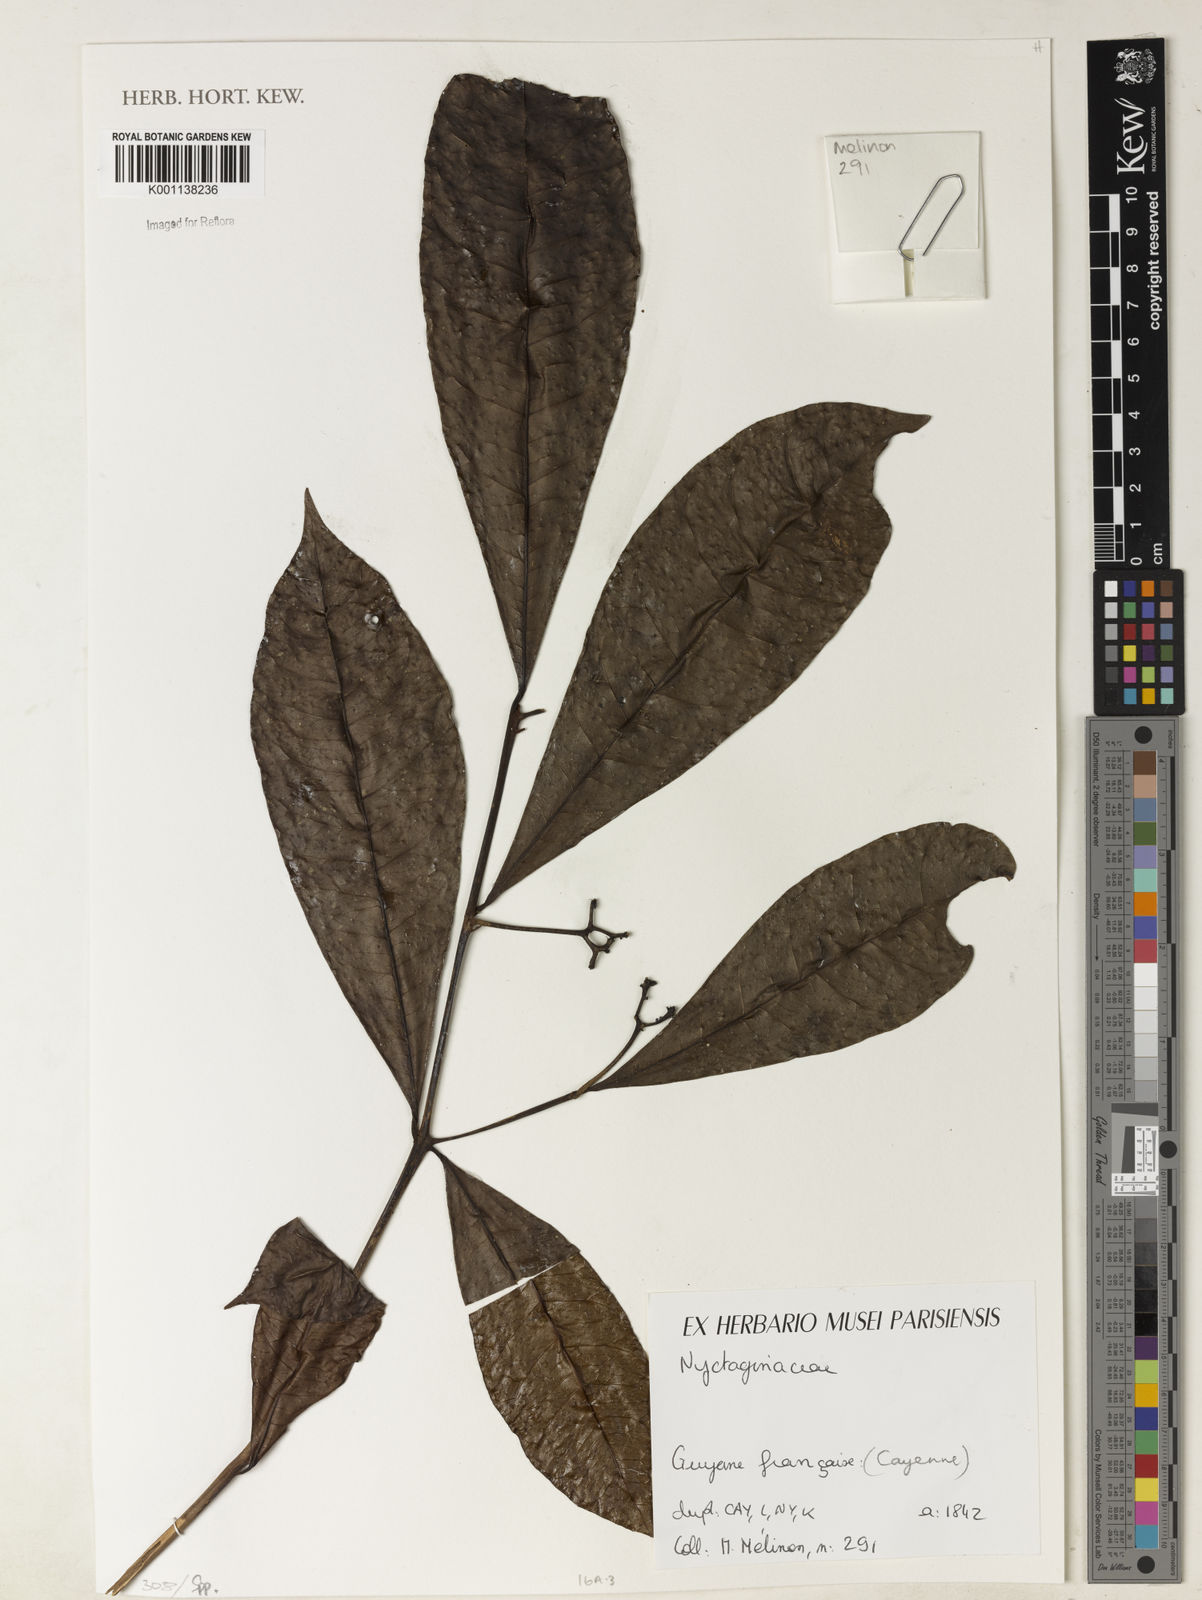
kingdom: Plantae
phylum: Tracheophyta
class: Magnoliopsida
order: Caryophyllales
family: Nyctaginaceae
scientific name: Nyctaginaceae
